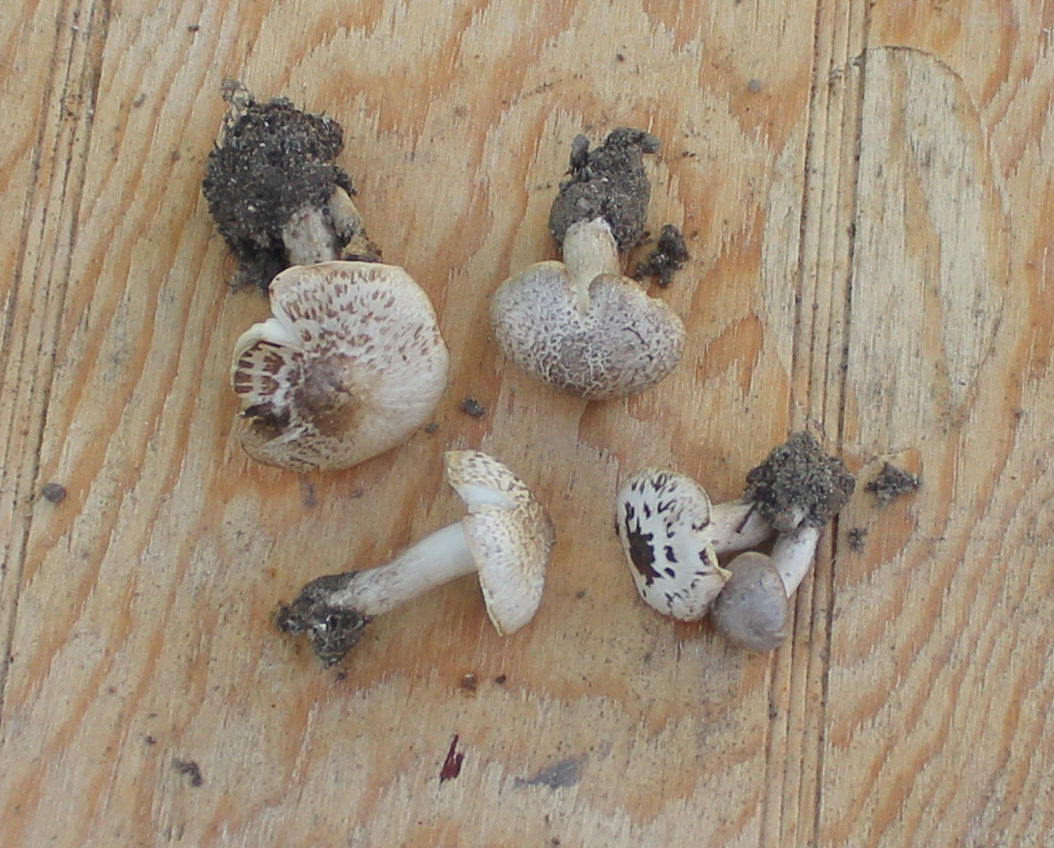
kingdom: Fungi
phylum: Basidiomycota
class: Agaricomycetes
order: Agaricales
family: Tricholomataceae
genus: Tricholoma
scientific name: Tricholoma argyraceum
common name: spids ridderhat
